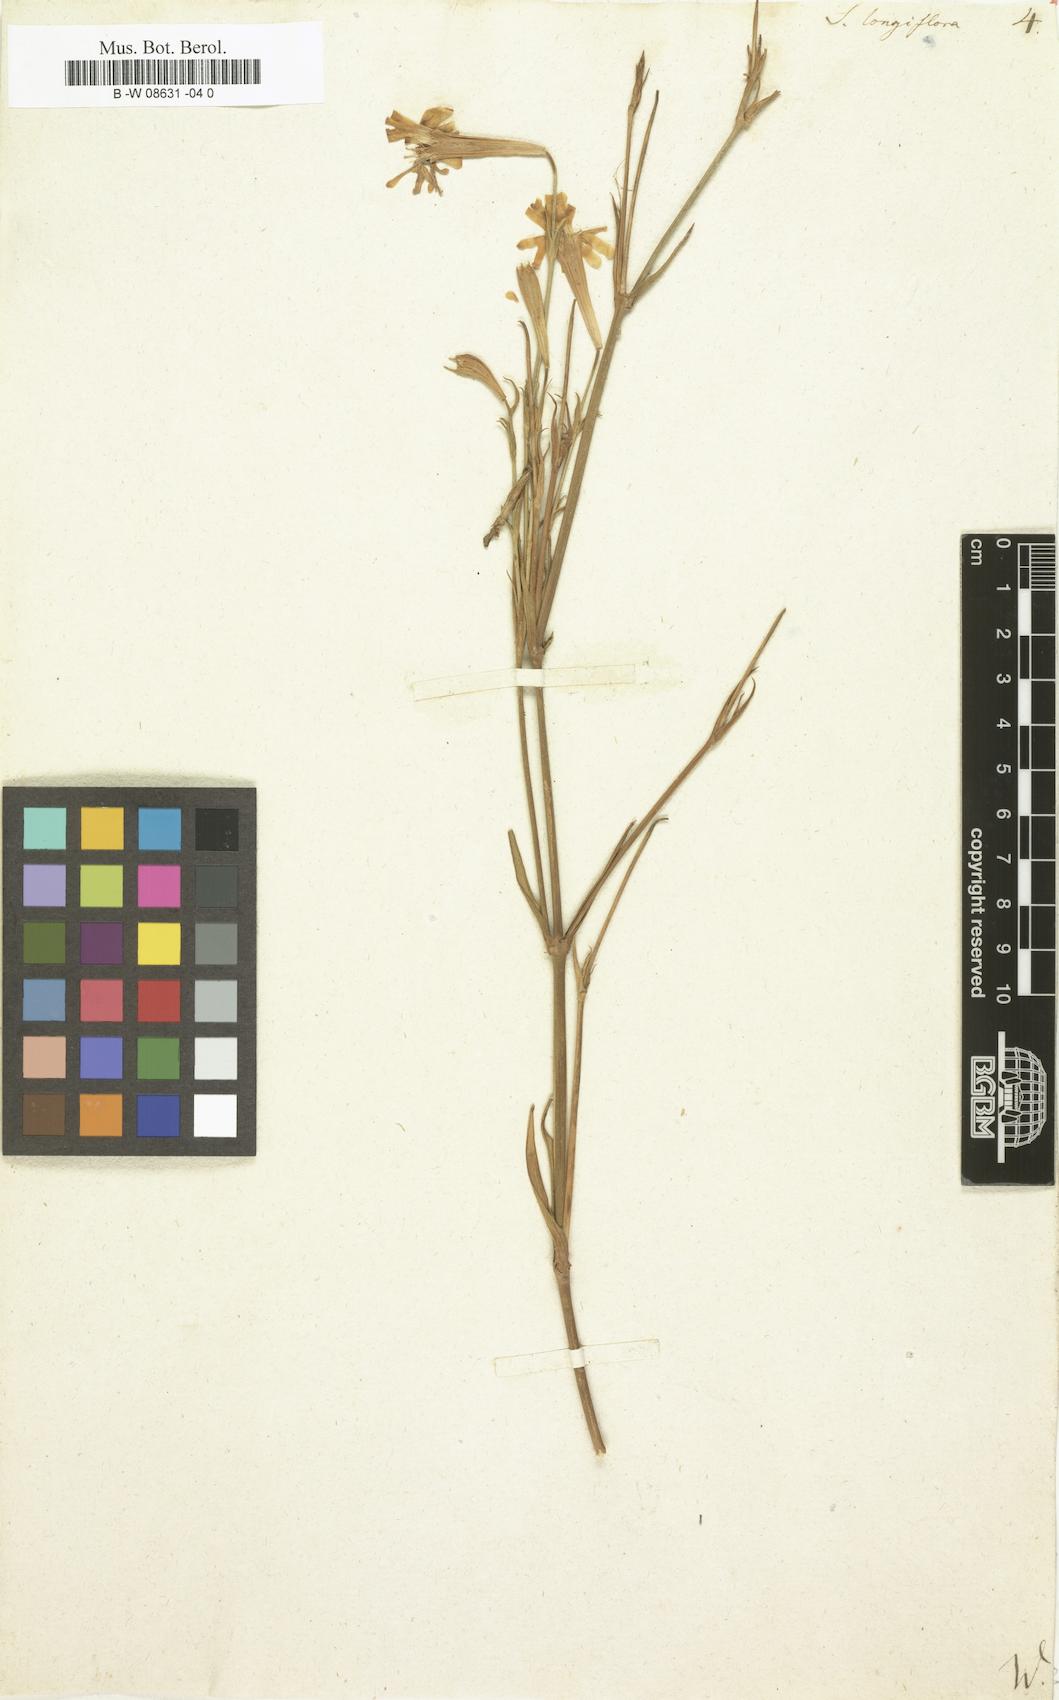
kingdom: Plantae
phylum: Tracheophyta
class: Magnoliopsida
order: Caryophyllales
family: Caryophyllaceae
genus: Silene
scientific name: Silene
